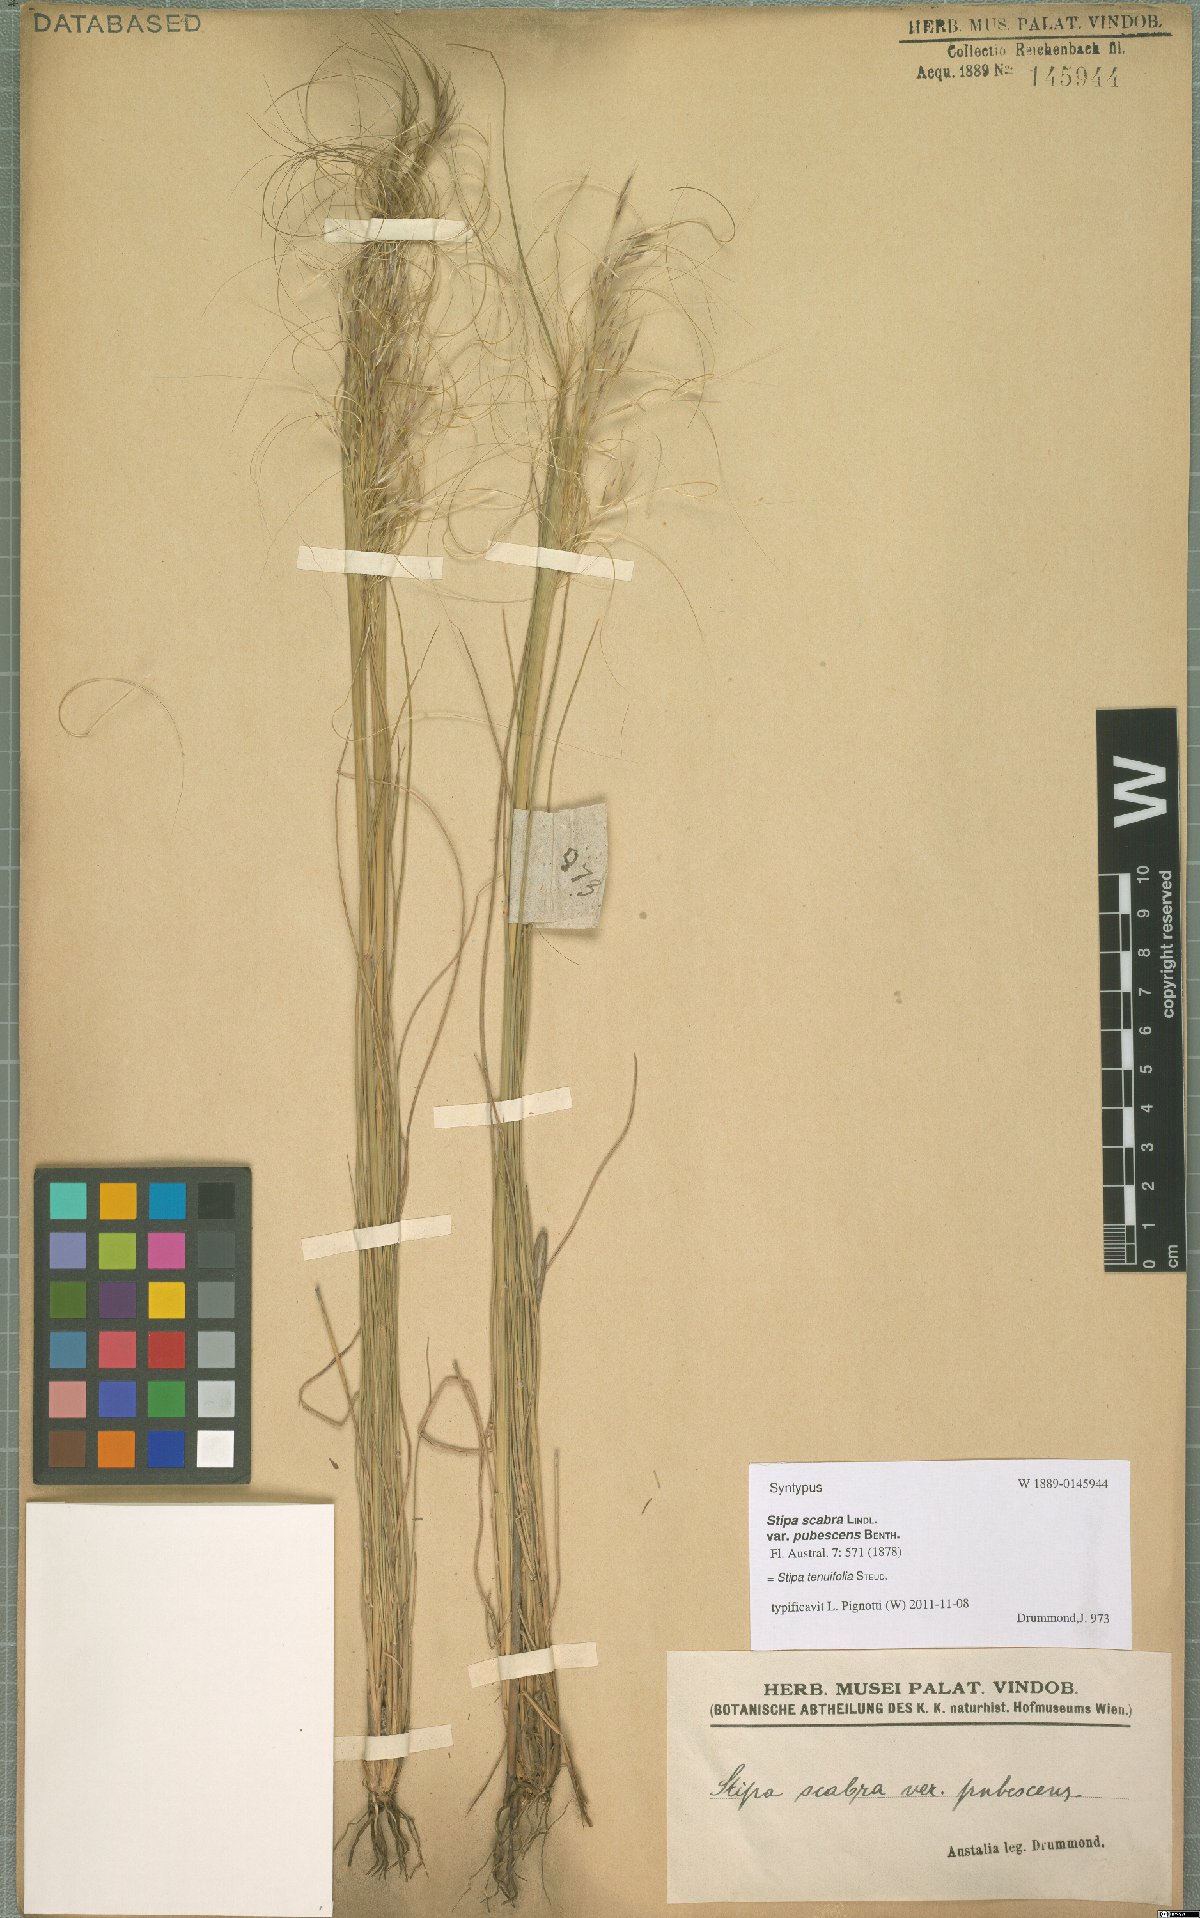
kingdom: Plantae
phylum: Tracheophyta
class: Liliopsida
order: Poales
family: Poaceae
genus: Austrostipa
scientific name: Austrostipa scabra
